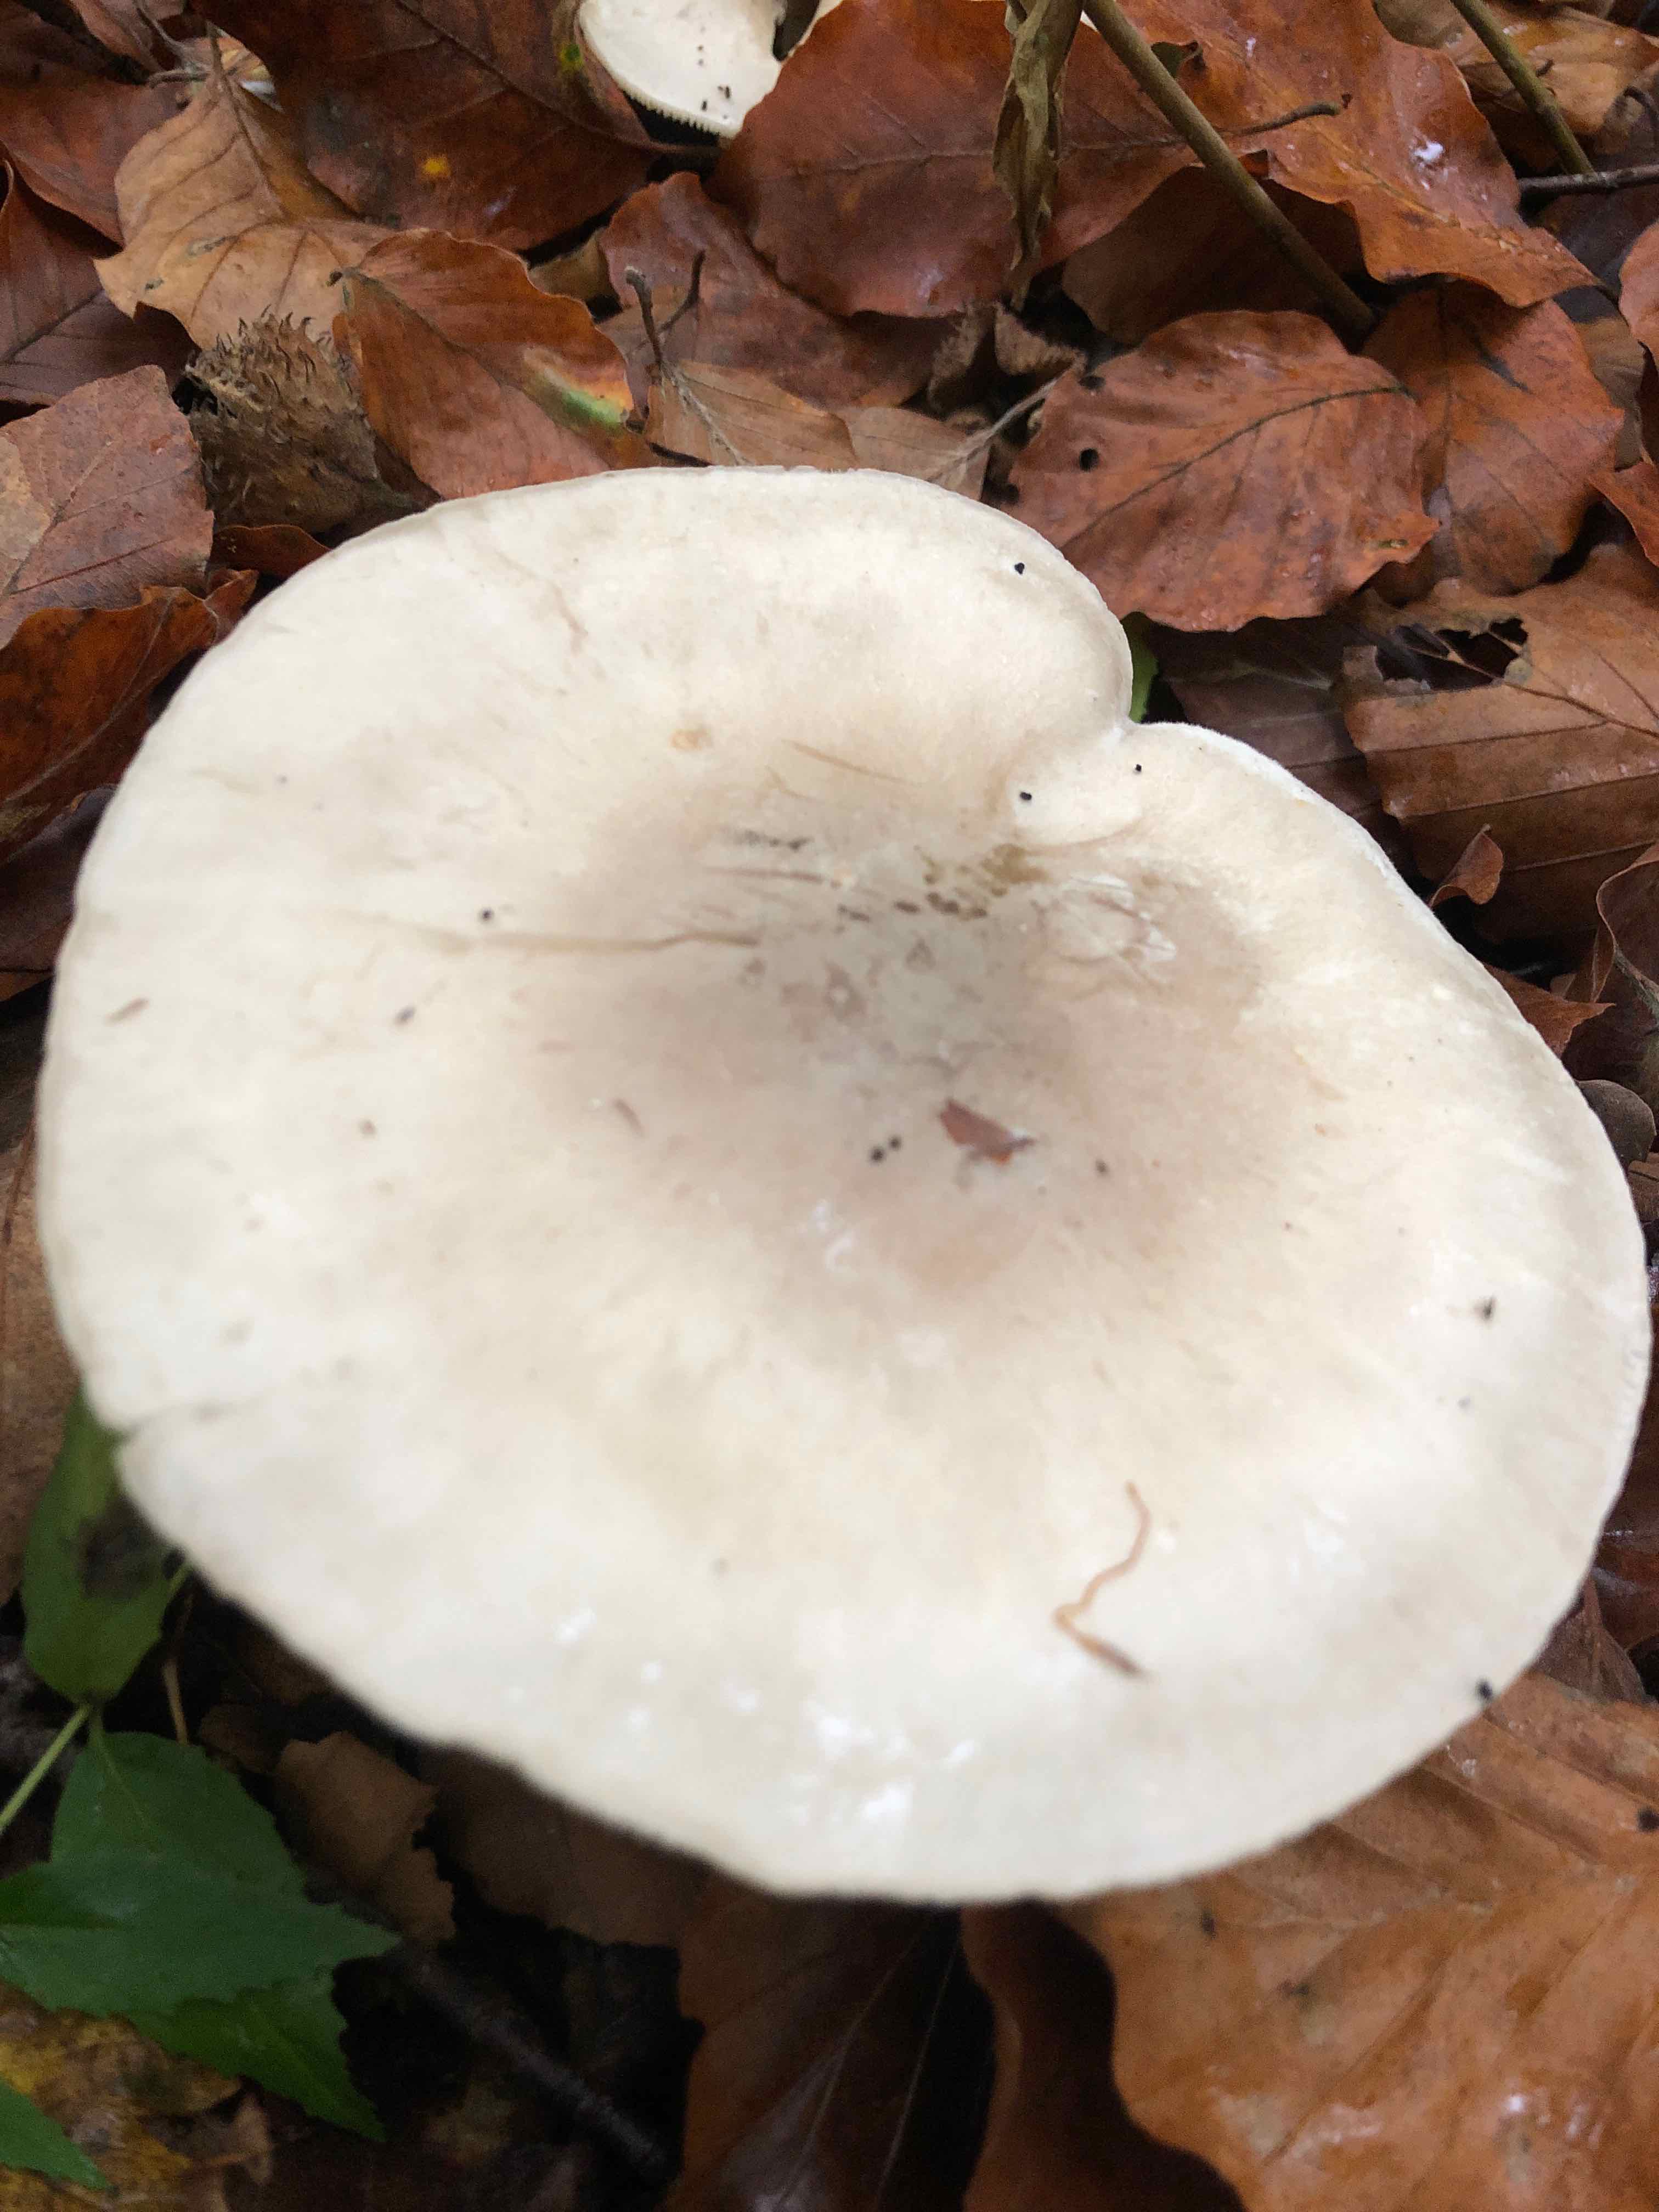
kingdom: Fungi
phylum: Basidiomycota
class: Agaricomycetes
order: Agaricales
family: Tricholomataceae
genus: Clitocybe
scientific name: Clitocybe nebularis
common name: tåge-tragthat
